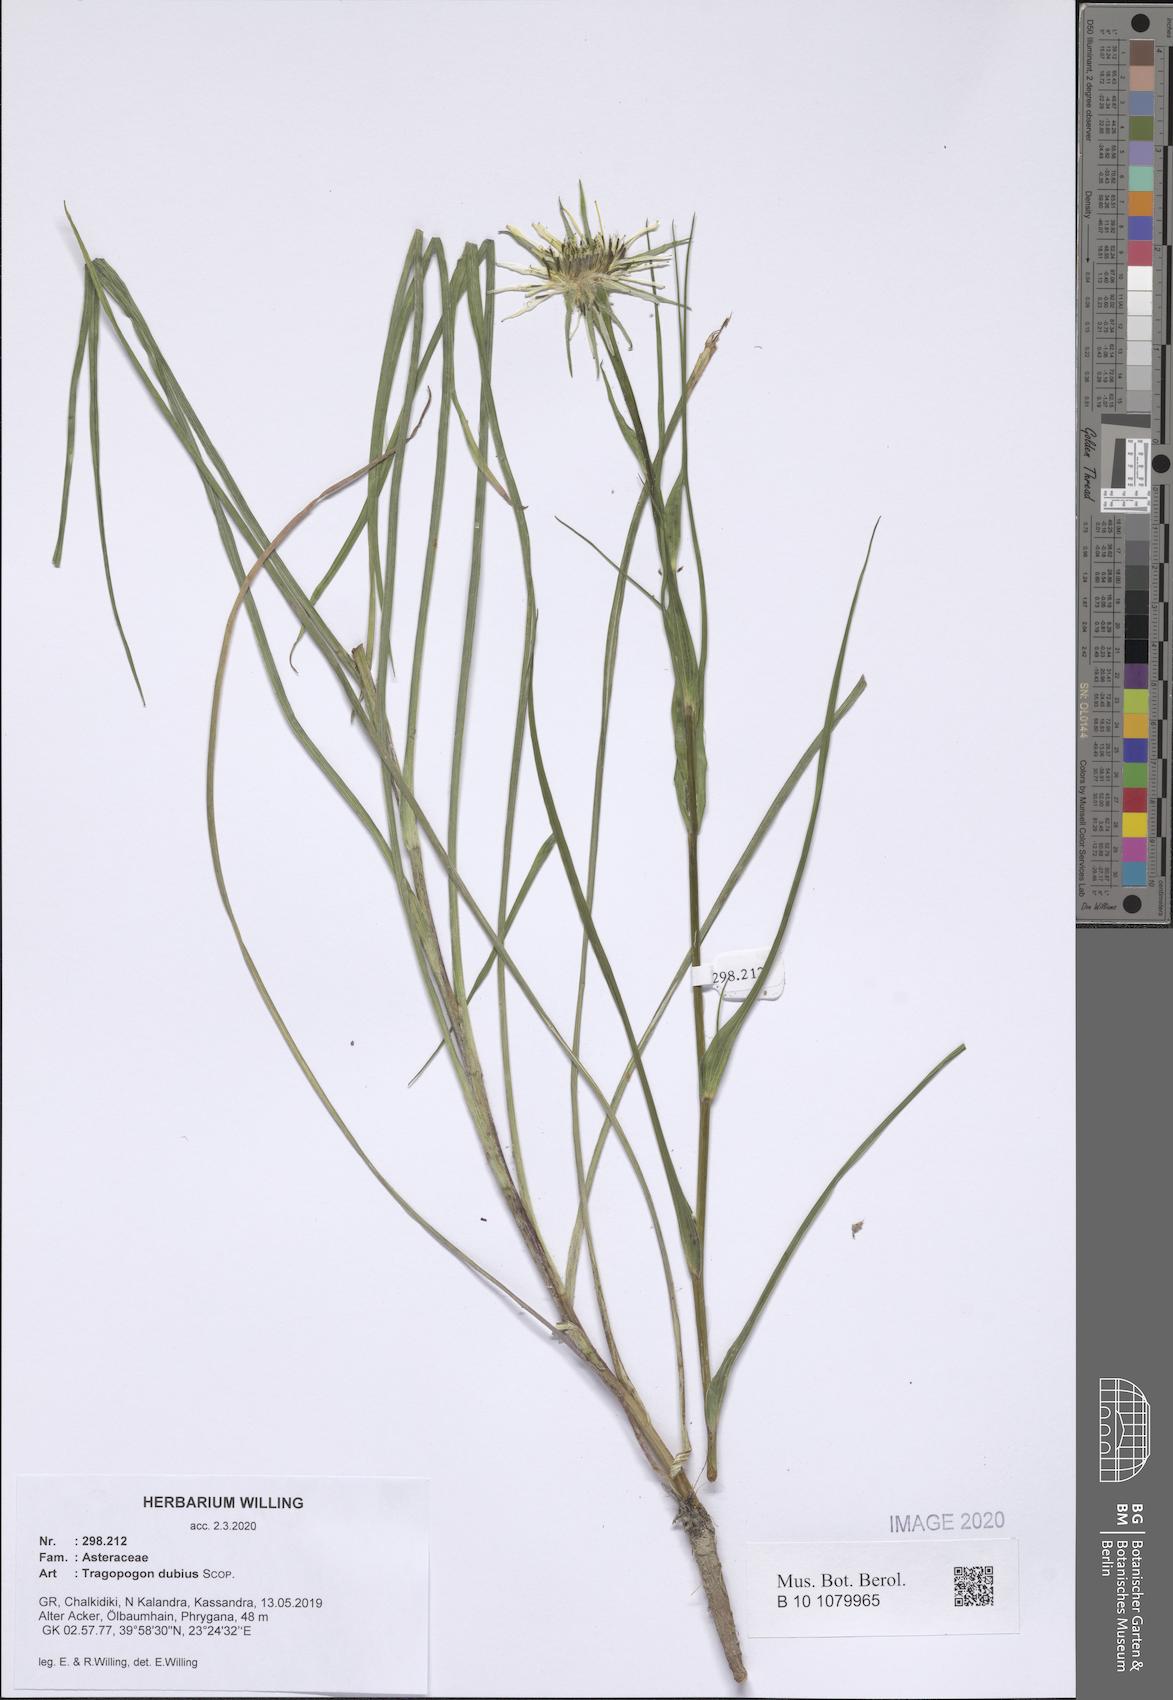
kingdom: Plantae
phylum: Tracheophyta
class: Magnoliopsida
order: Asterales
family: Asteraceae
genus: Tragopogon
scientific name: Tragopogon dubius
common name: Yellow salsify
